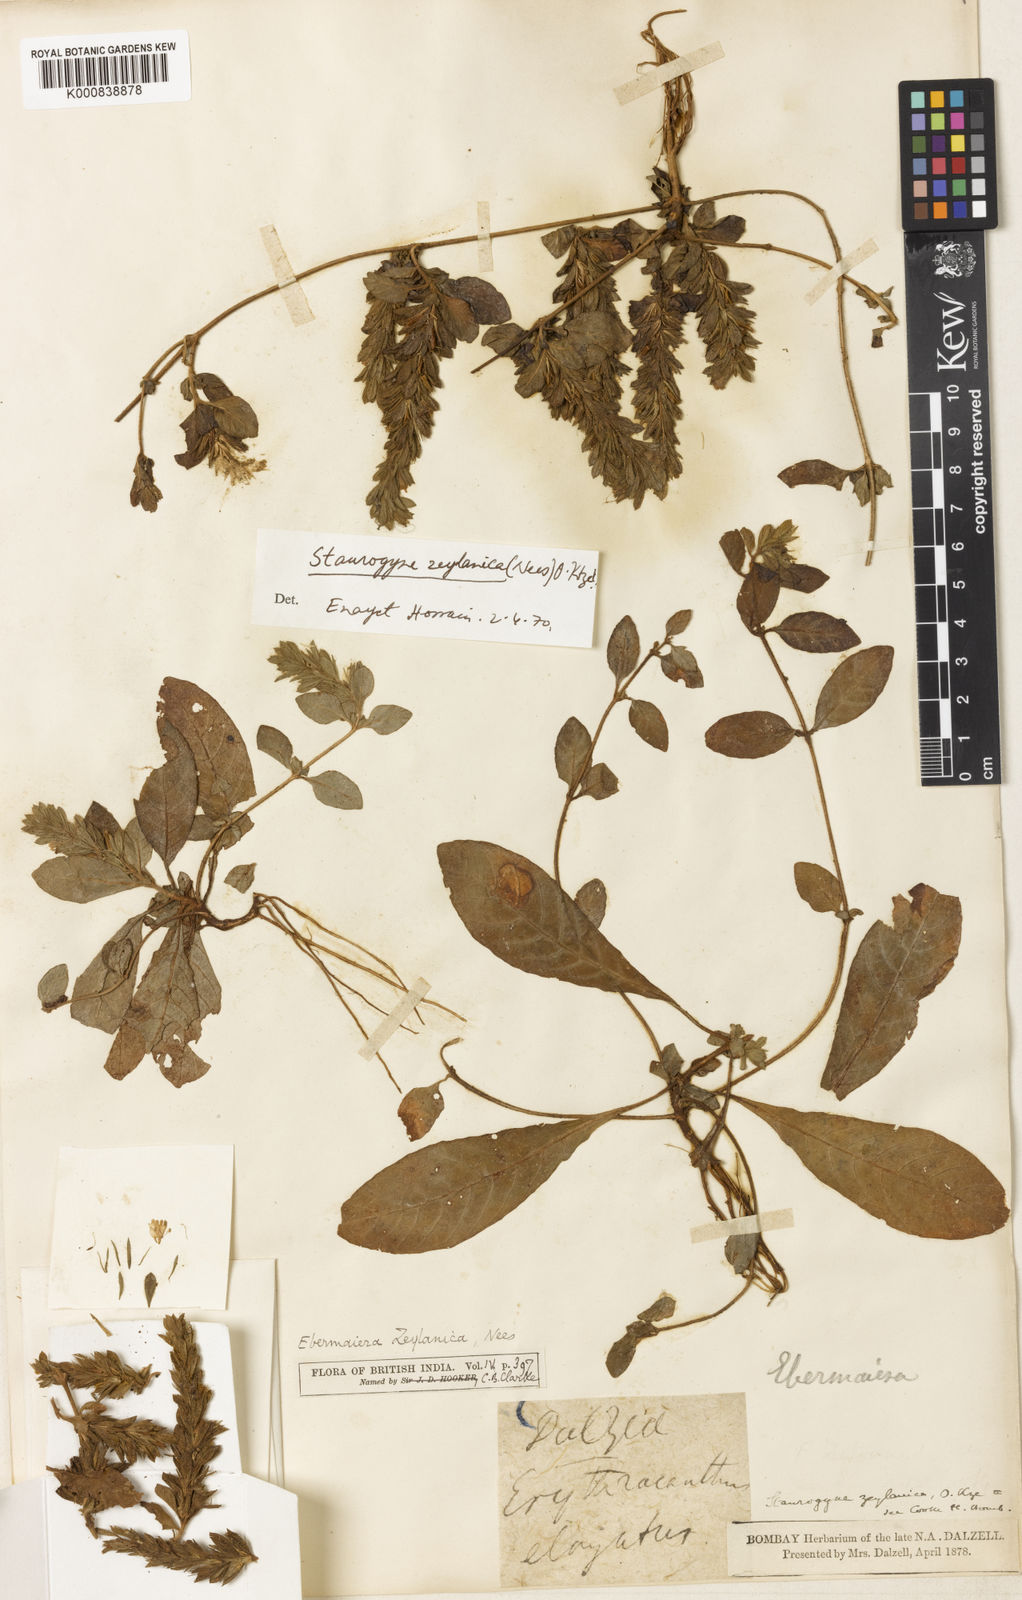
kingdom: Plantae
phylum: Tracheophyta
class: Magnoliopsida
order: Lamiales
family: Acanthaceae
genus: Staurogyne
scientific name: Staurogyne zeylanica
